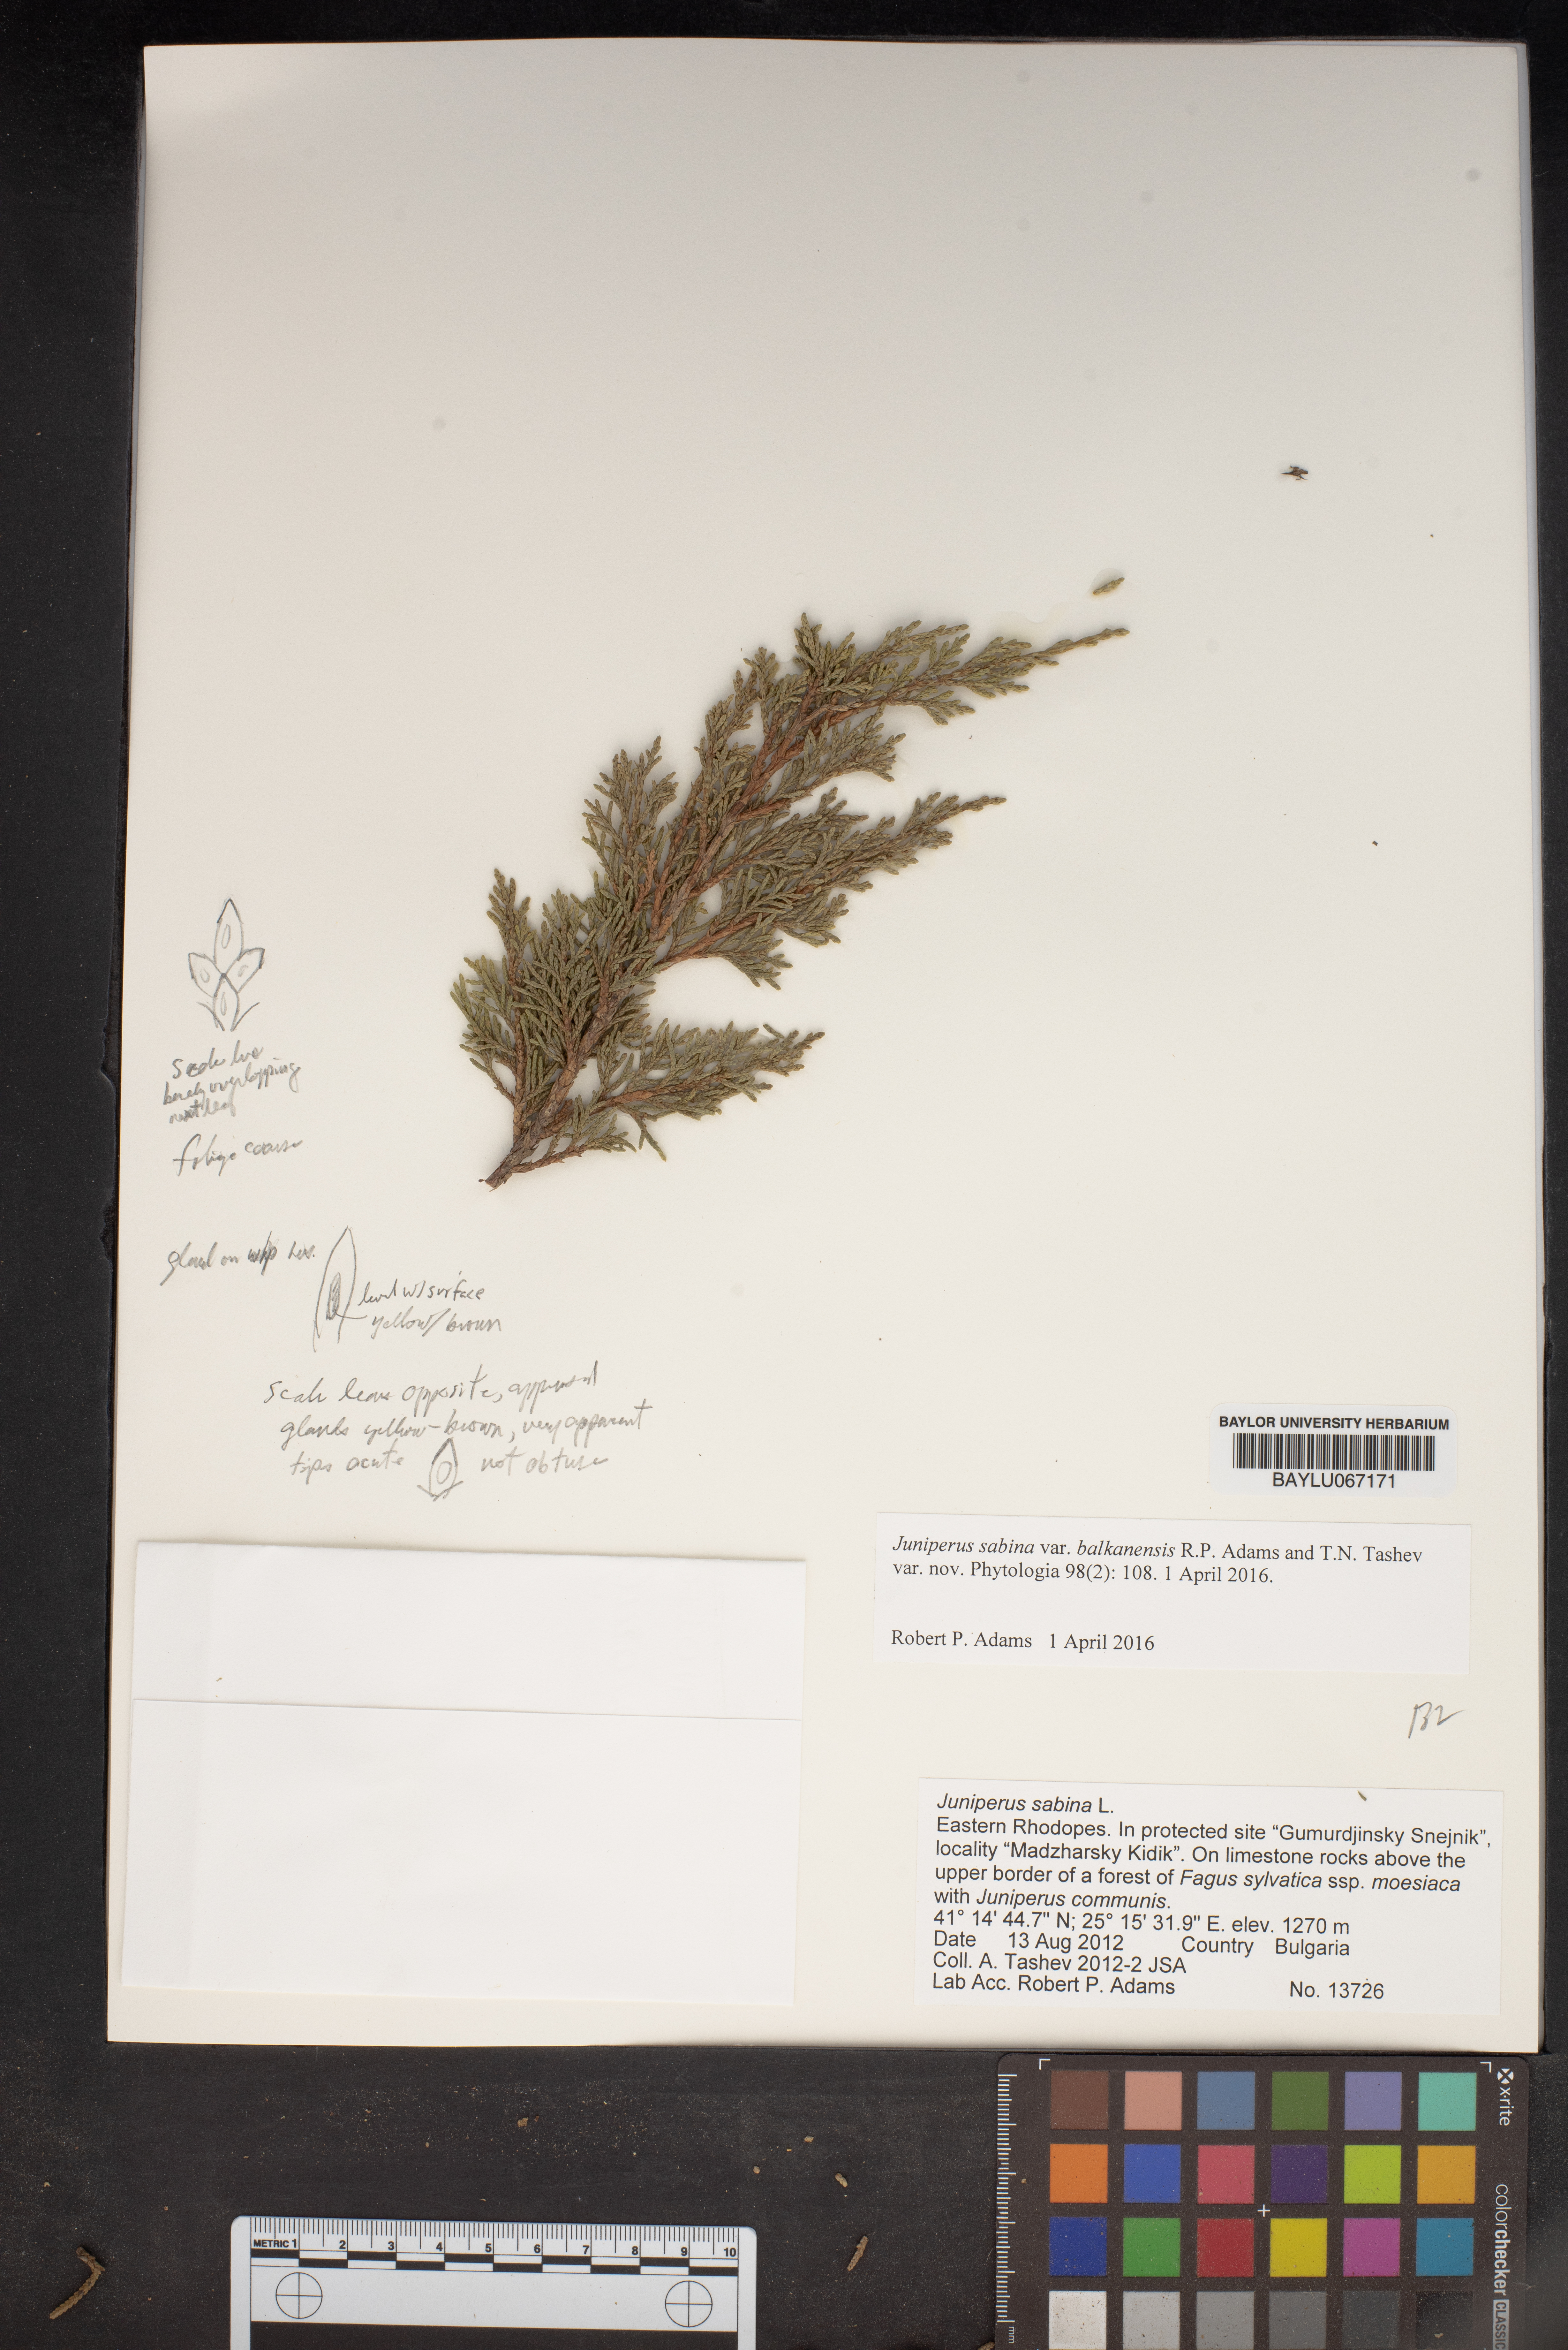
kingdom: Plantae
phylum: Tracheophyta
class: Pinopsida
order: Pinales
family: Cupressaceae
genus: Juniperus
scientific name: Juniperus sabina
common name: Savin
